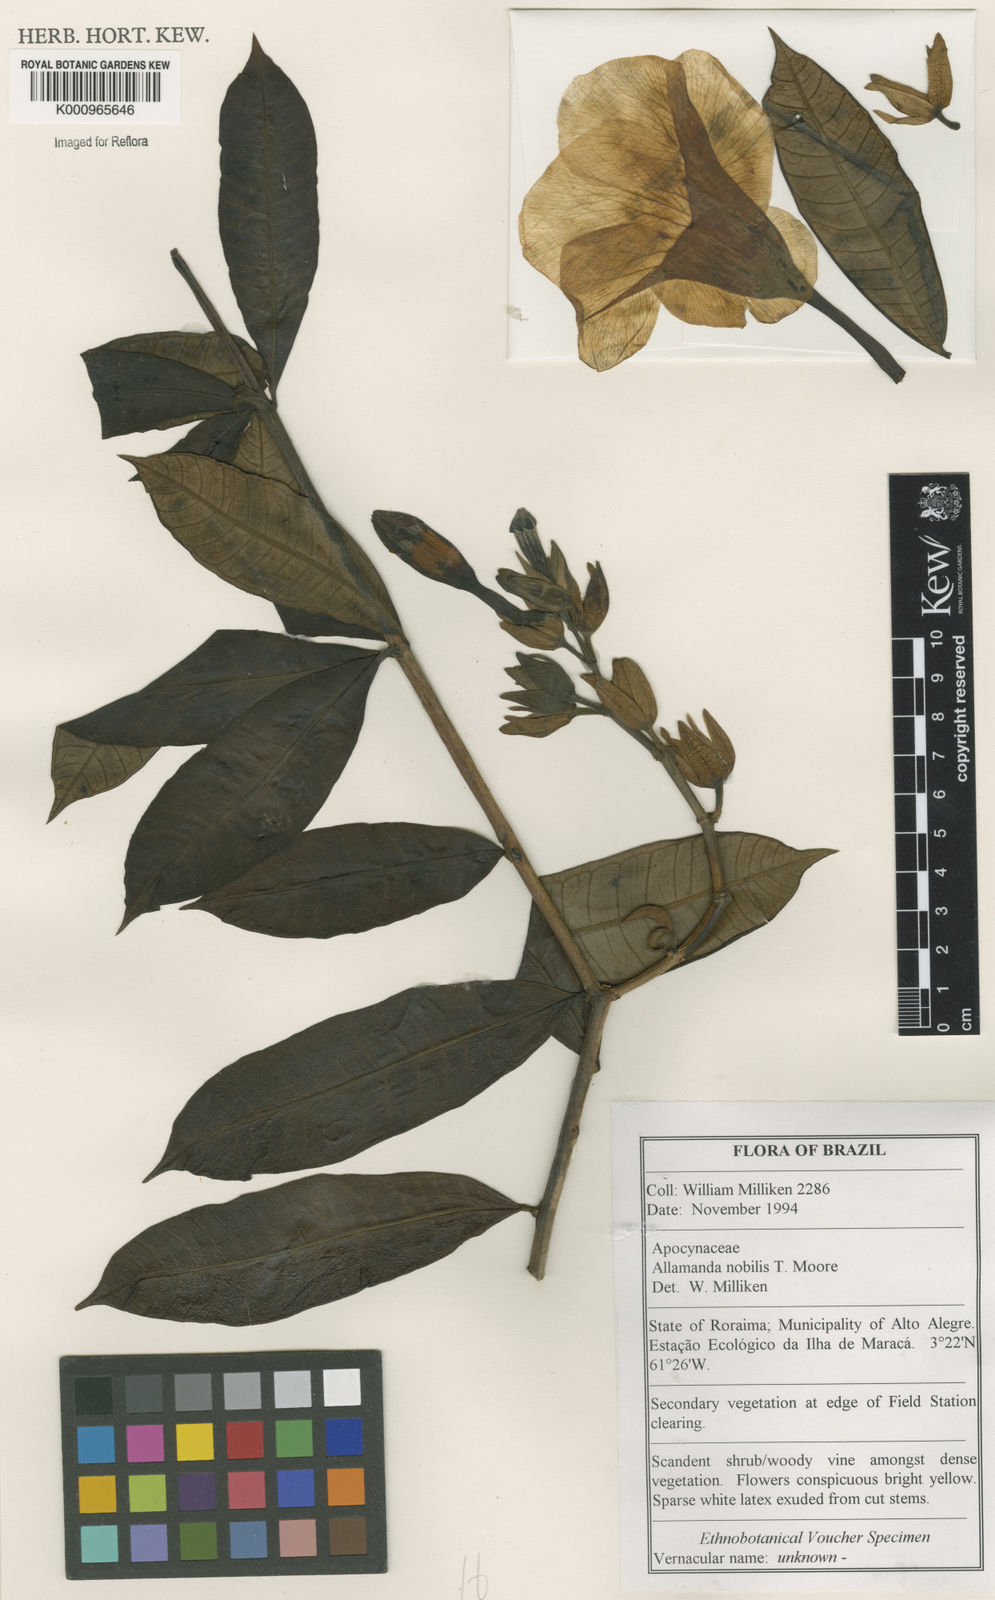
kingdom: Plantae
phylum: Tracheophyta
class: Magnoliopsida
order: Gentianales
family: Apocynaceae
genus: Allamanda
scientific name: Allamanda nobilis
